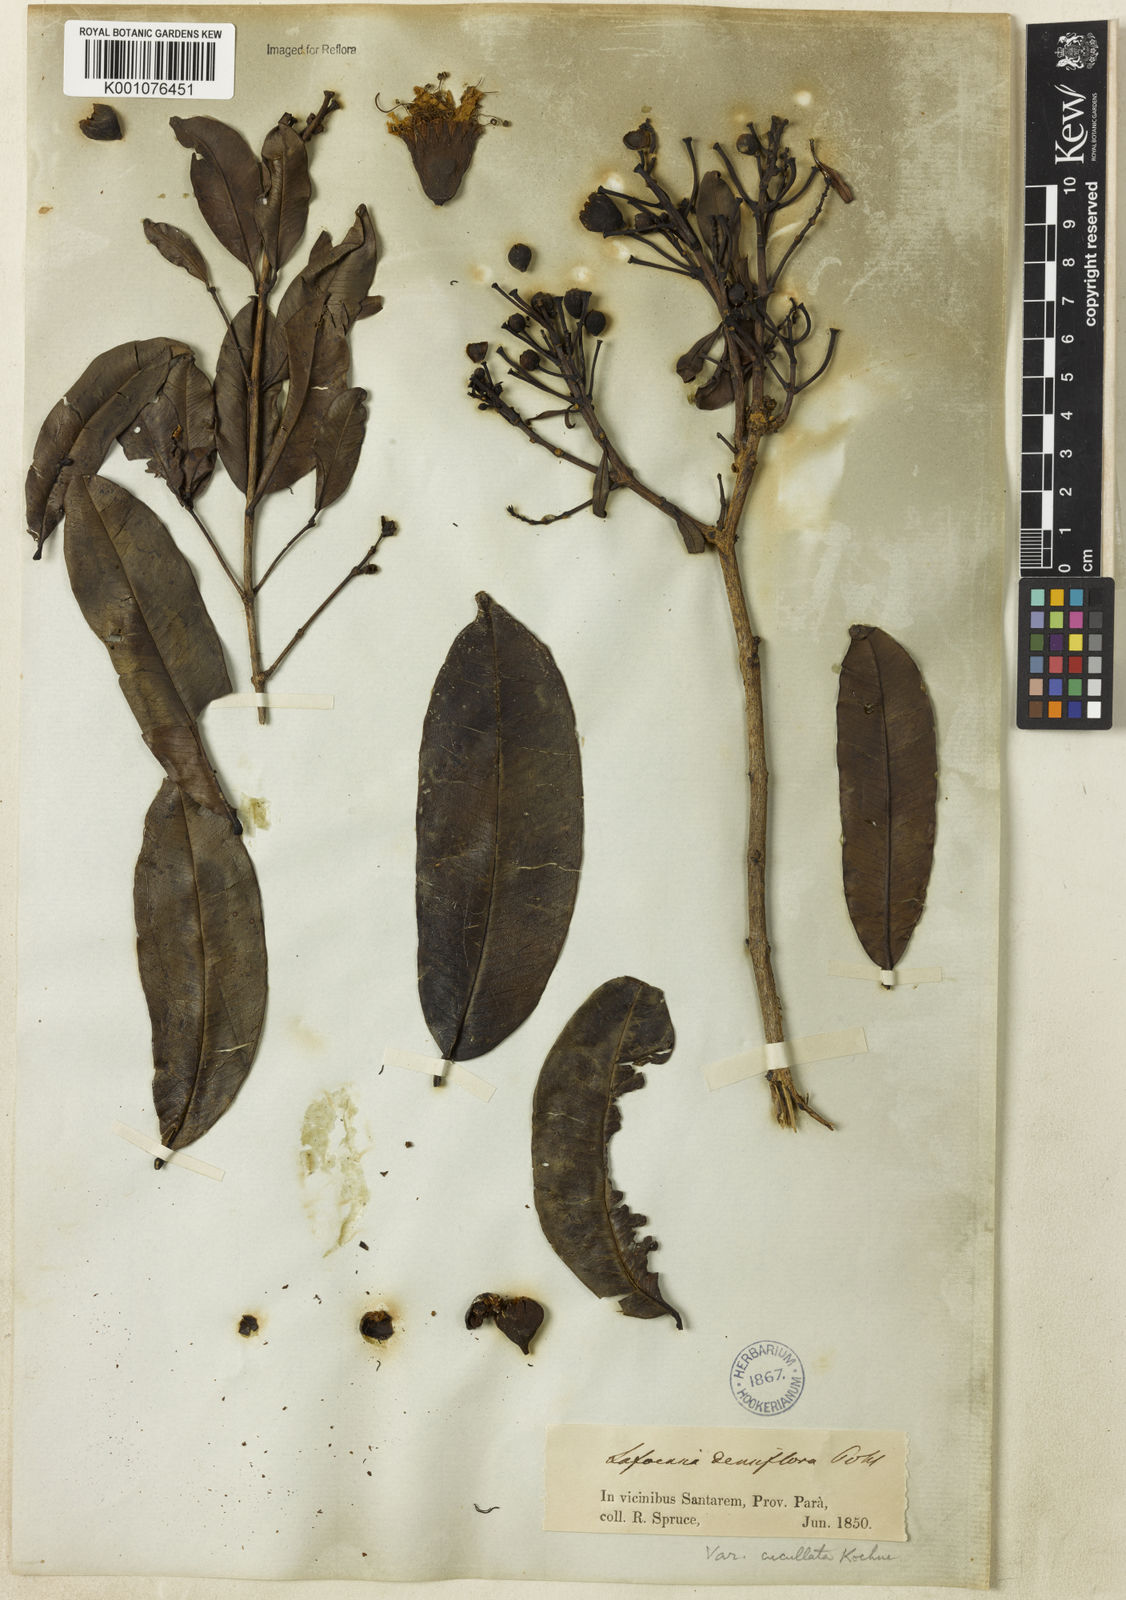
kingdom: Plantae
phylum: Tracheophyta
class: Magnoliopsida
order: Myrtales
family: Lythraceae
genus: Lafoensia
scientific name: Lafoensia vandelliana
